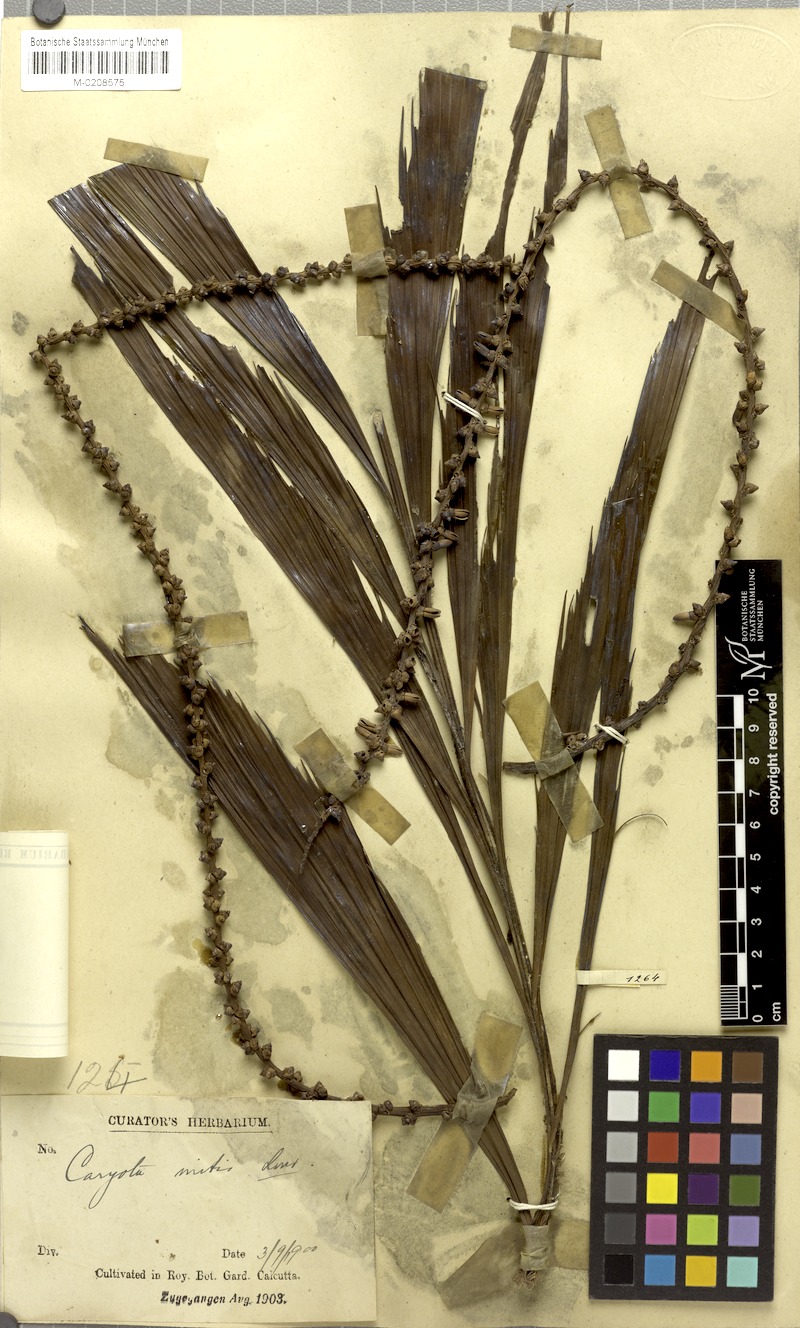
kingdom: Plantae
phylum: Tracheophyta
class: Liliopsida
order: Arecales
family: Arecaceae
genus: Caryota
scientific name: Caryota mitis
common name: Burmese fishtail palm
